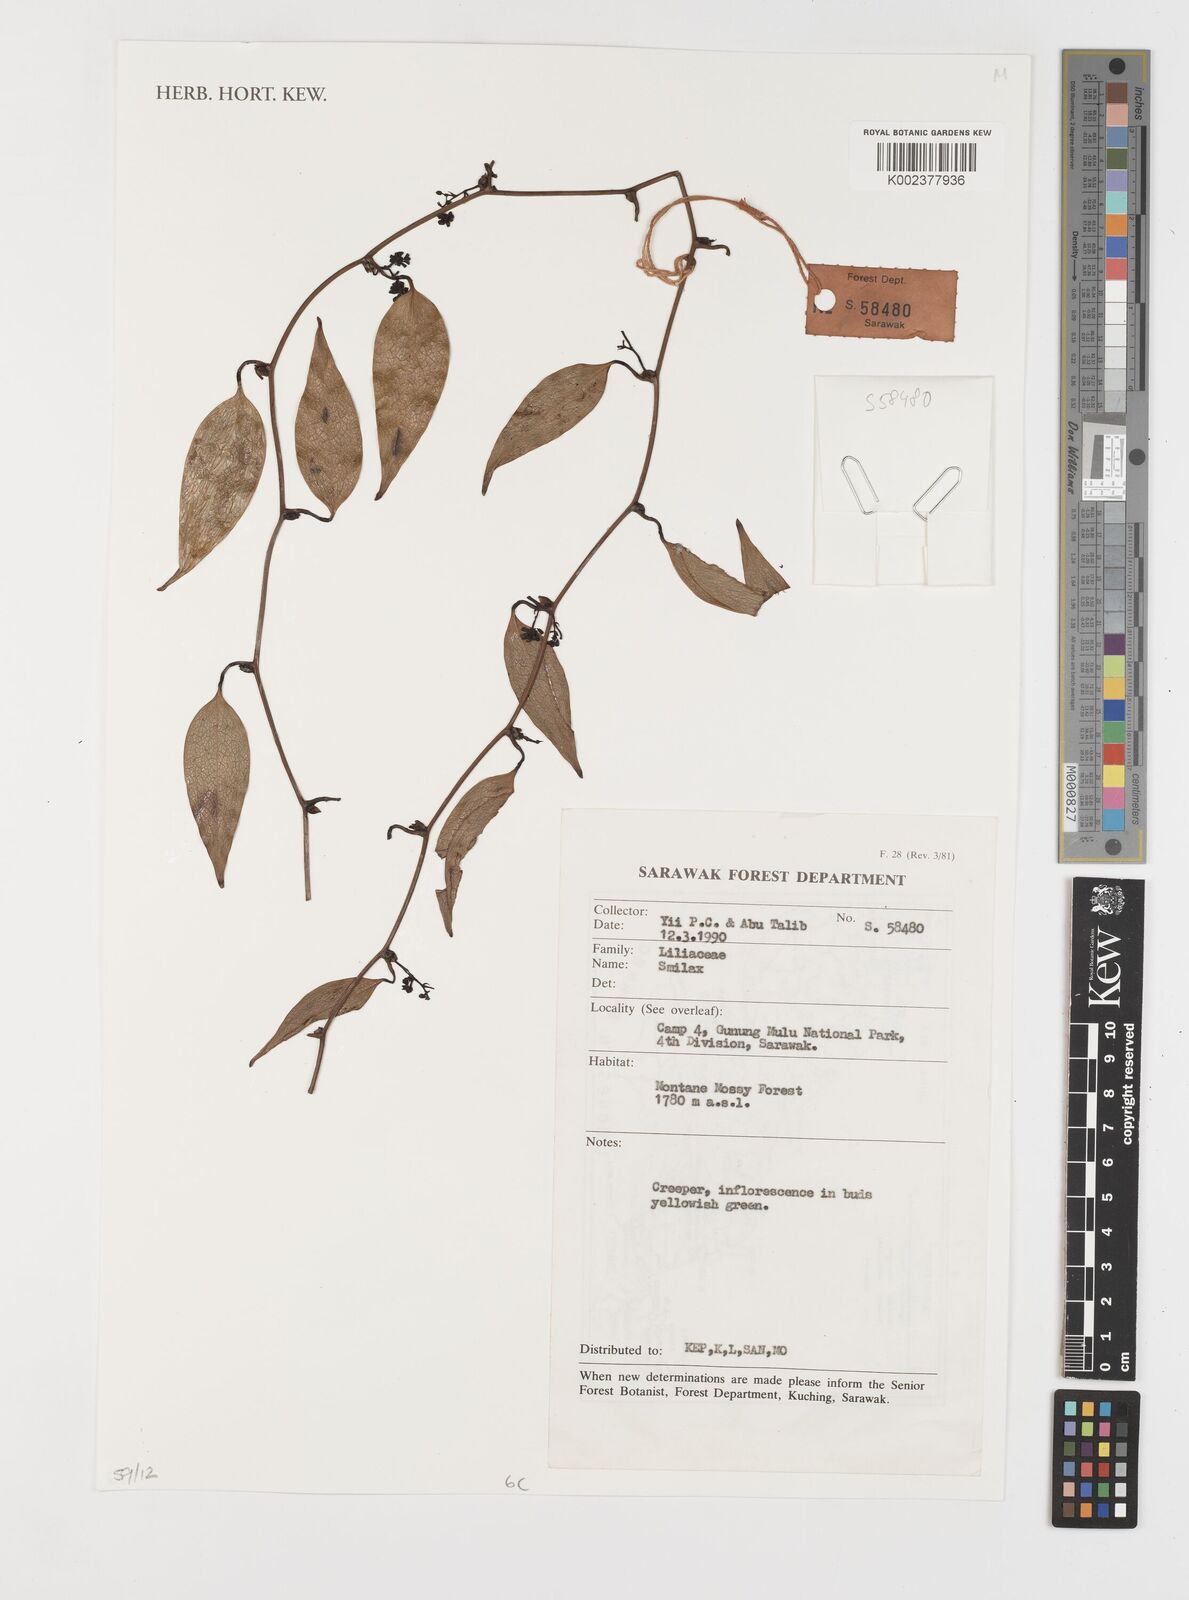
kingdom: Plantae
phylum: Tracheophyta
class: Liliopsida
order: Liliales
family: Smilacaceae
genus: Smilax
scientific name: Smilax
